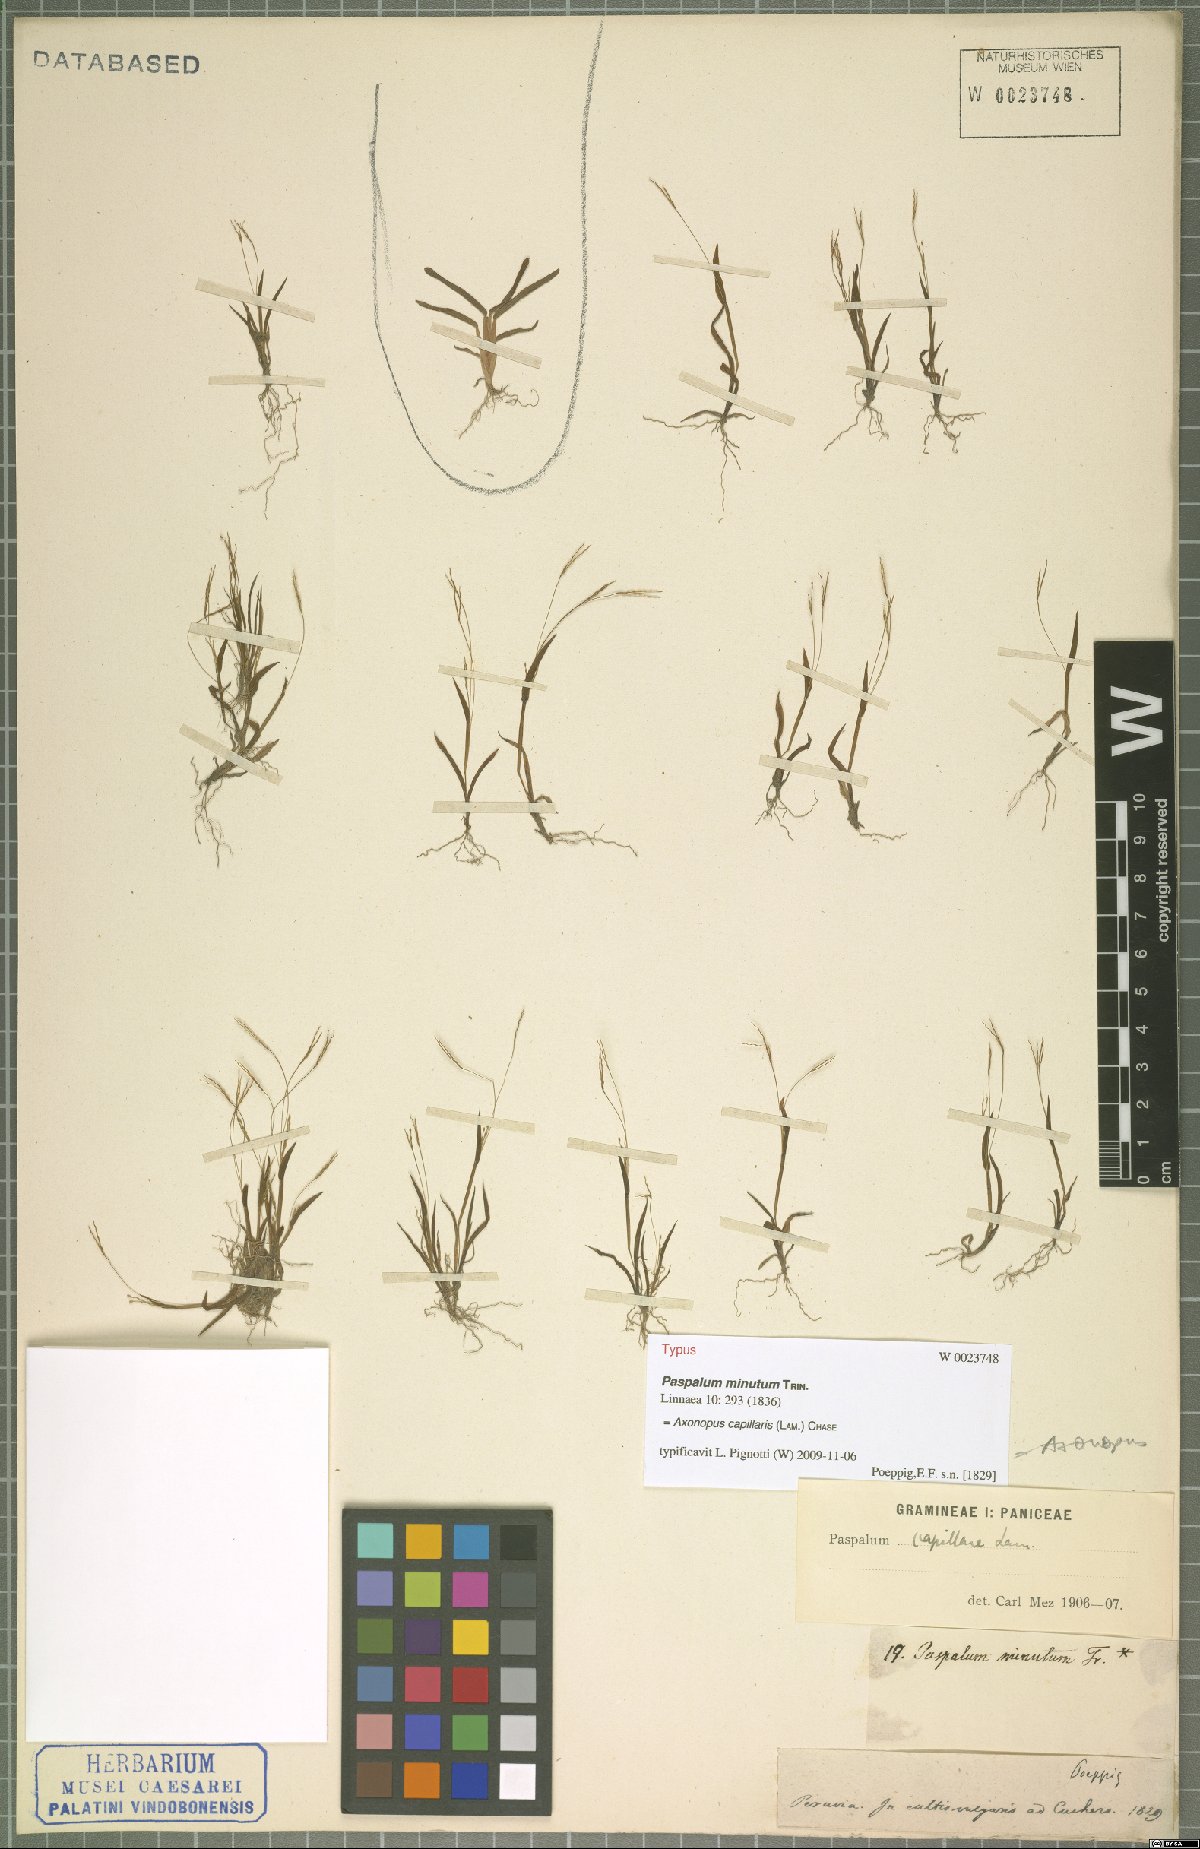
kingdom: Plantae
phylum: Tracheophyta
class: Liliopsida
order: Poales
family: Poaceae
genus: Axonopus
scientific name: Axonopus capillaris
